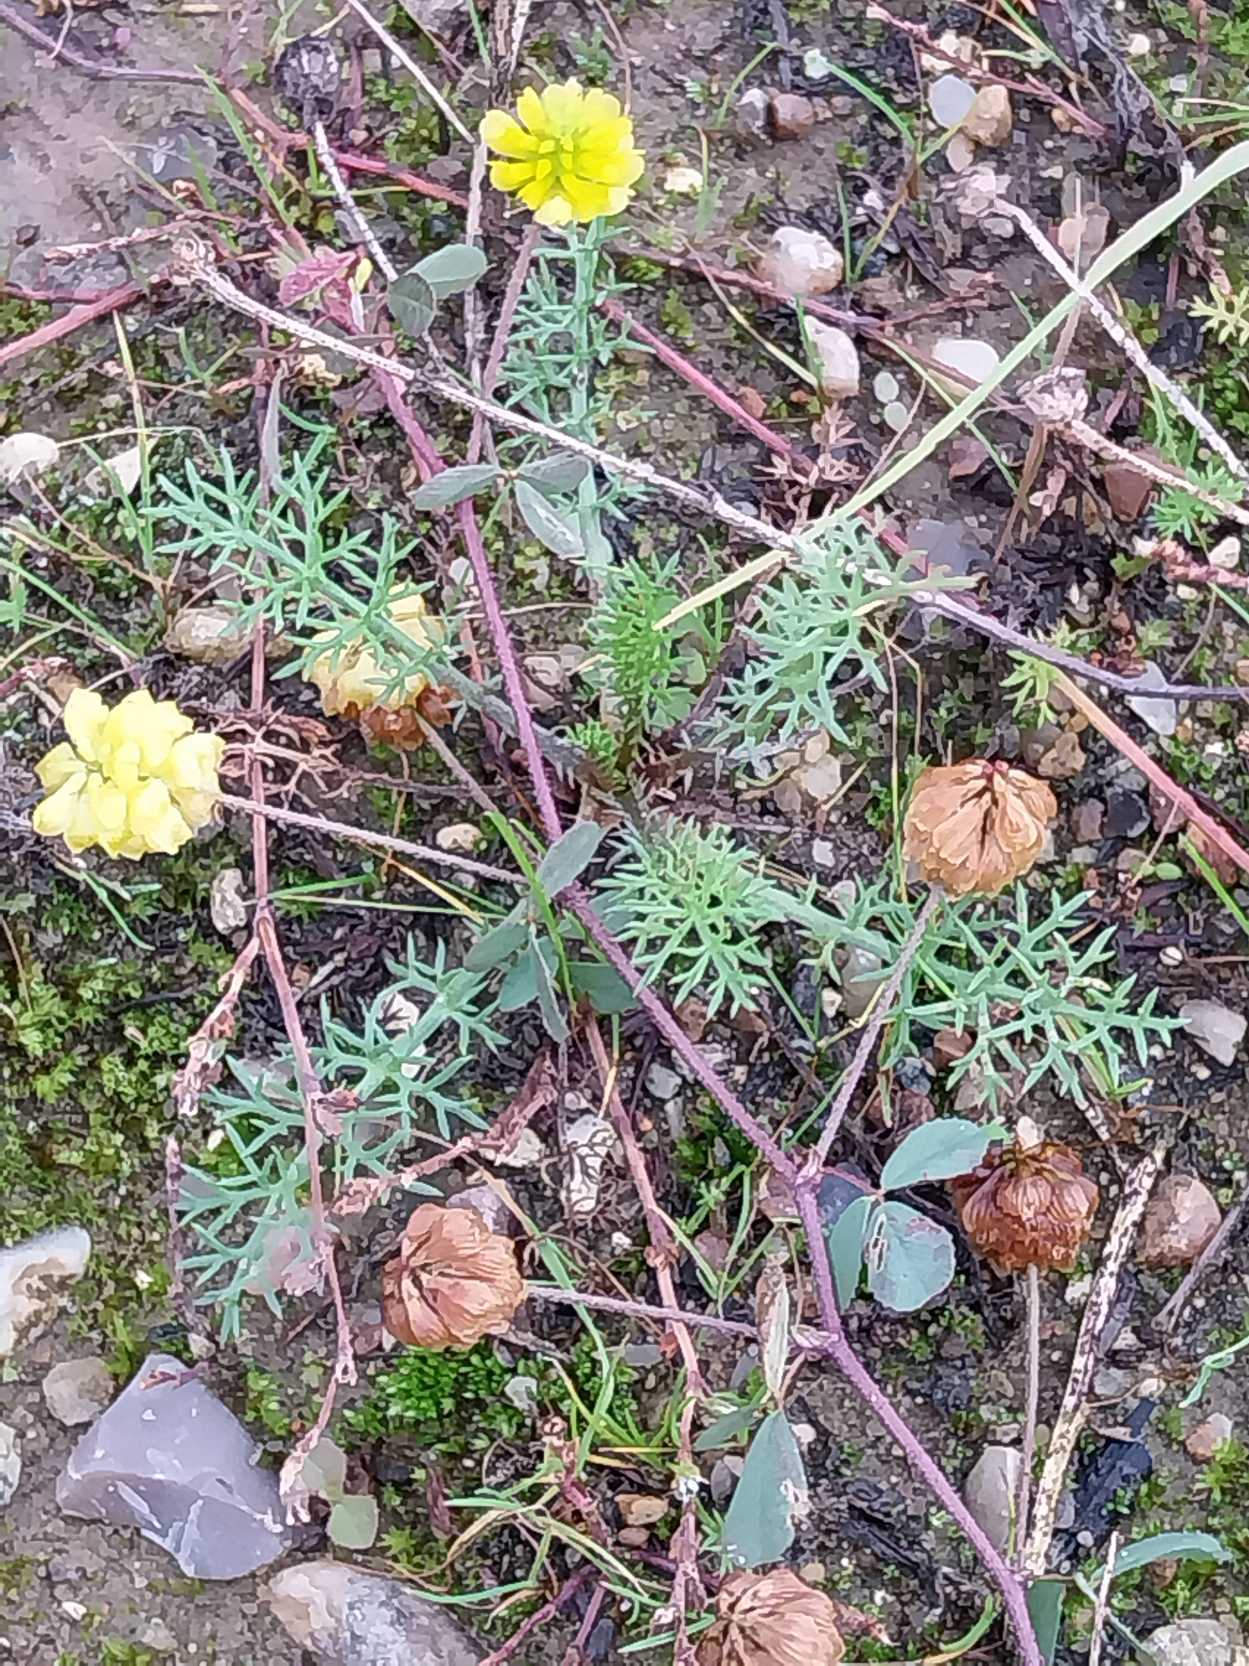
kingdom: Plantae
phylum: Tracheophyta
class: Magnoliopsida
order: Fabales
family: Fabaceae
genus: Trifolium
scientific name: Trifolium campestre
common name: Gul kløver
